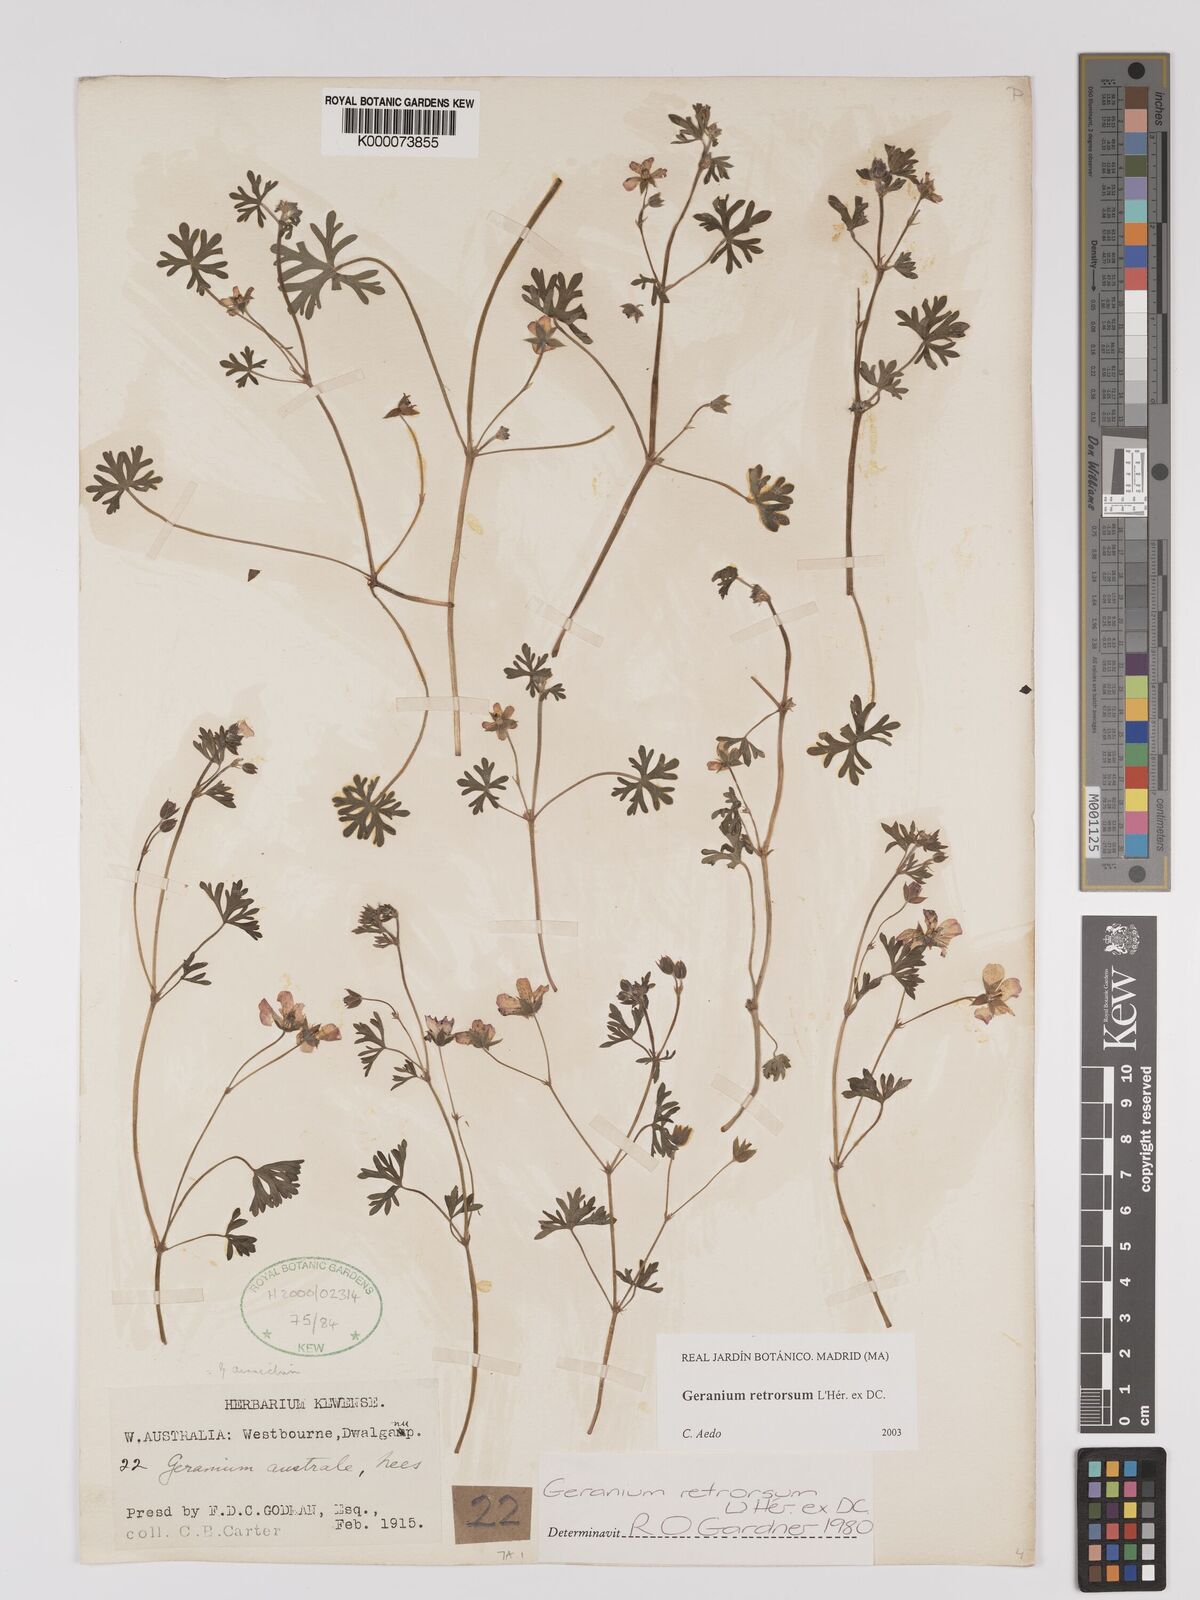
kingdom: Plantae
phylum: Tracheophyta
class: Magnoliopsida
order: Geraniales
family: Geraniaceae
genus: Geranium
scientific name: Geranium retrorsum
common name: New zealand geranium
